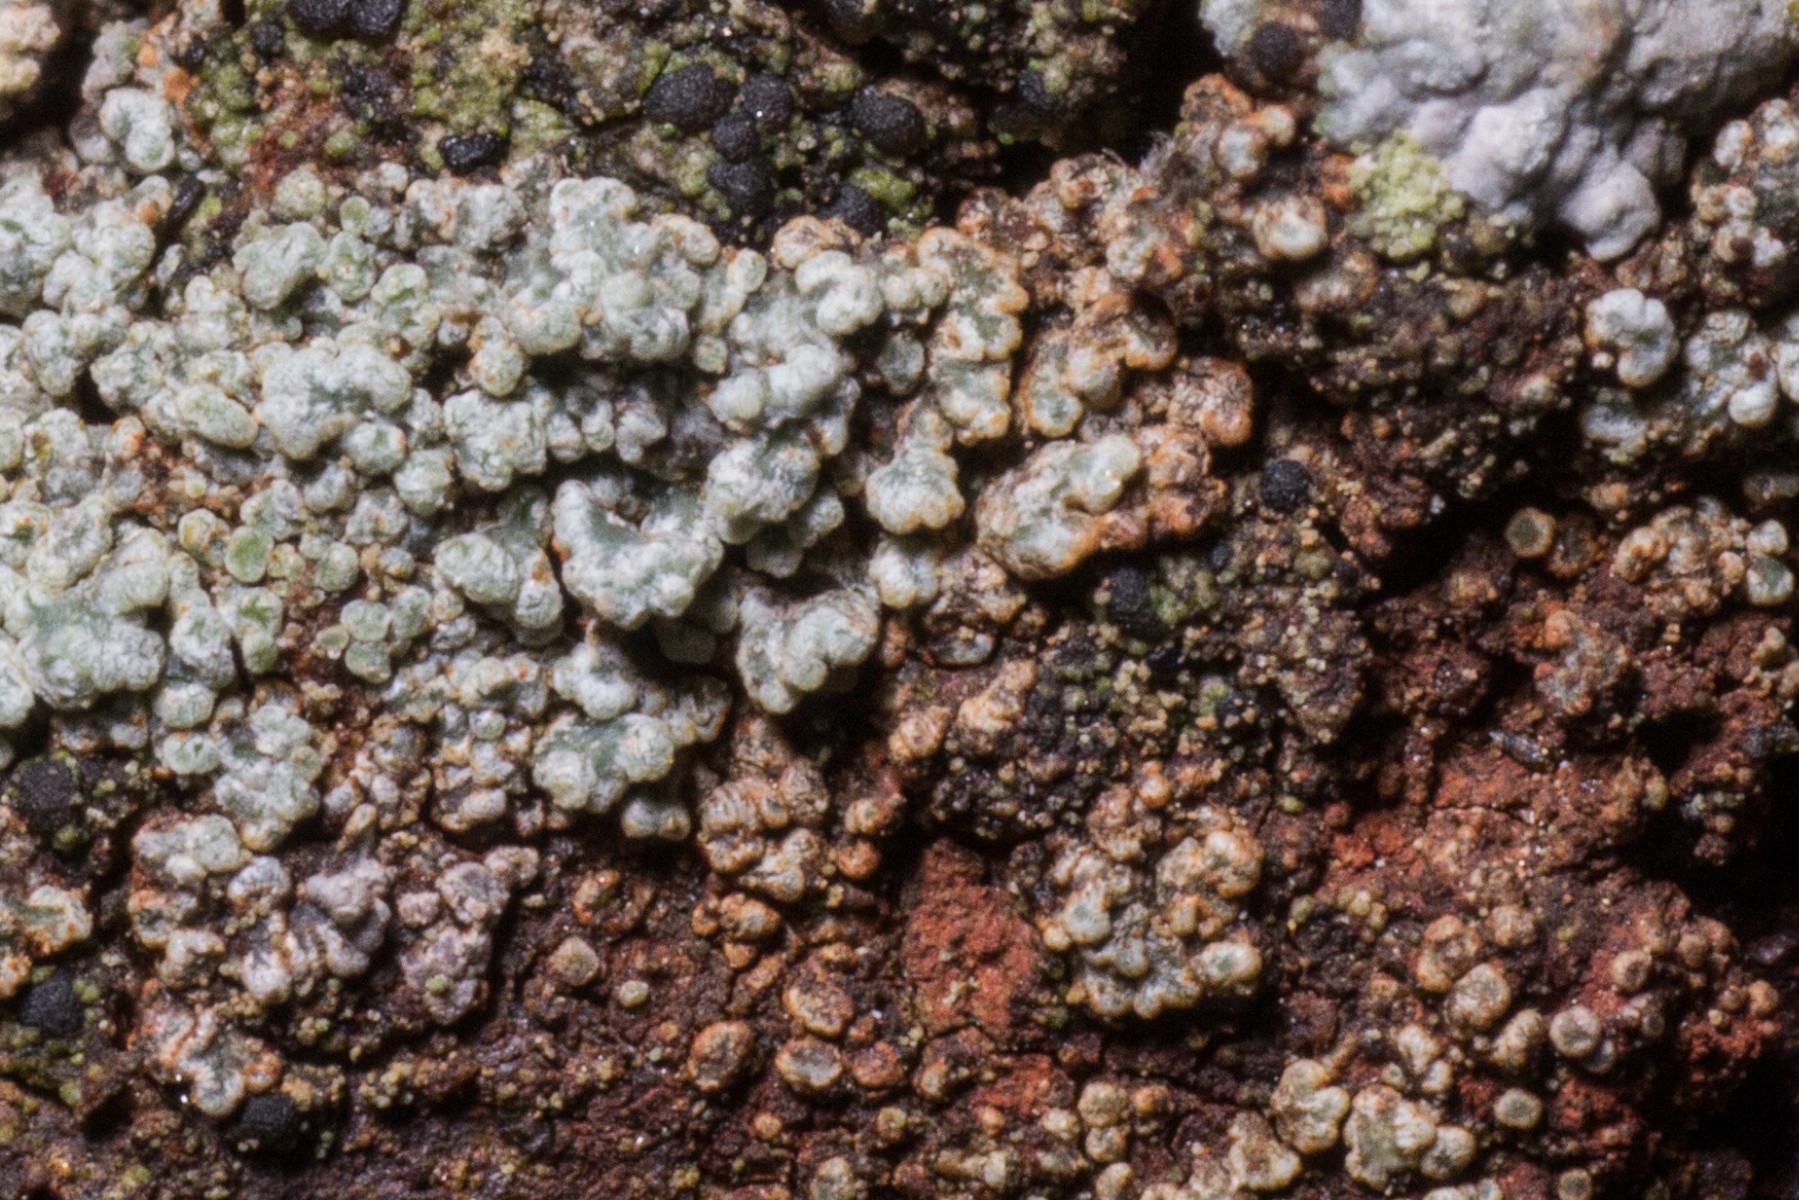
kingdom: Fungi
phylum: Ascomycota
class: Lecanoromycetes
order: Lecanorales
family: Stereocaulaceae
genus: Stereocaulon
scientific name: Stereocaulon vesuvianum
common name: skjold-korallav
